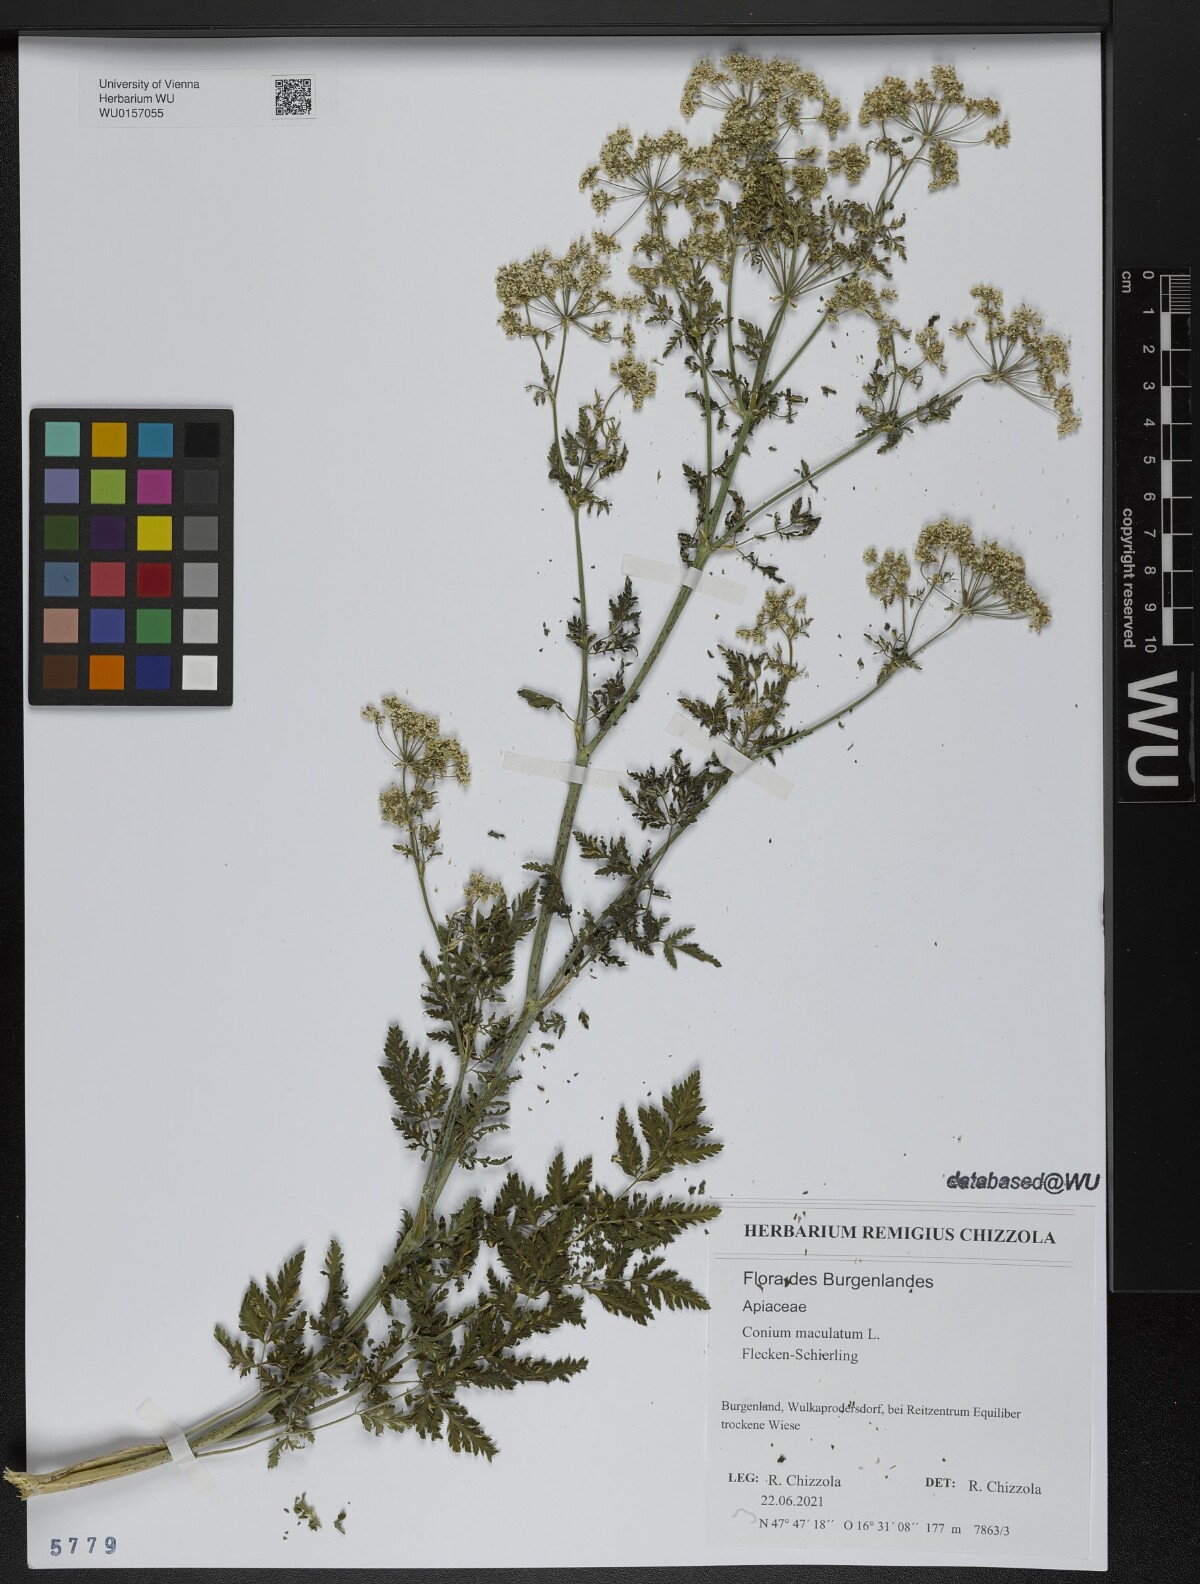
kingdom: Plantae
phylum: Tracheophyta
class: Magnoliopsida
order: Apiales
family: Apiaceae
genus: Conium
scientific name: Conium maculatum
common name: Hemlock
